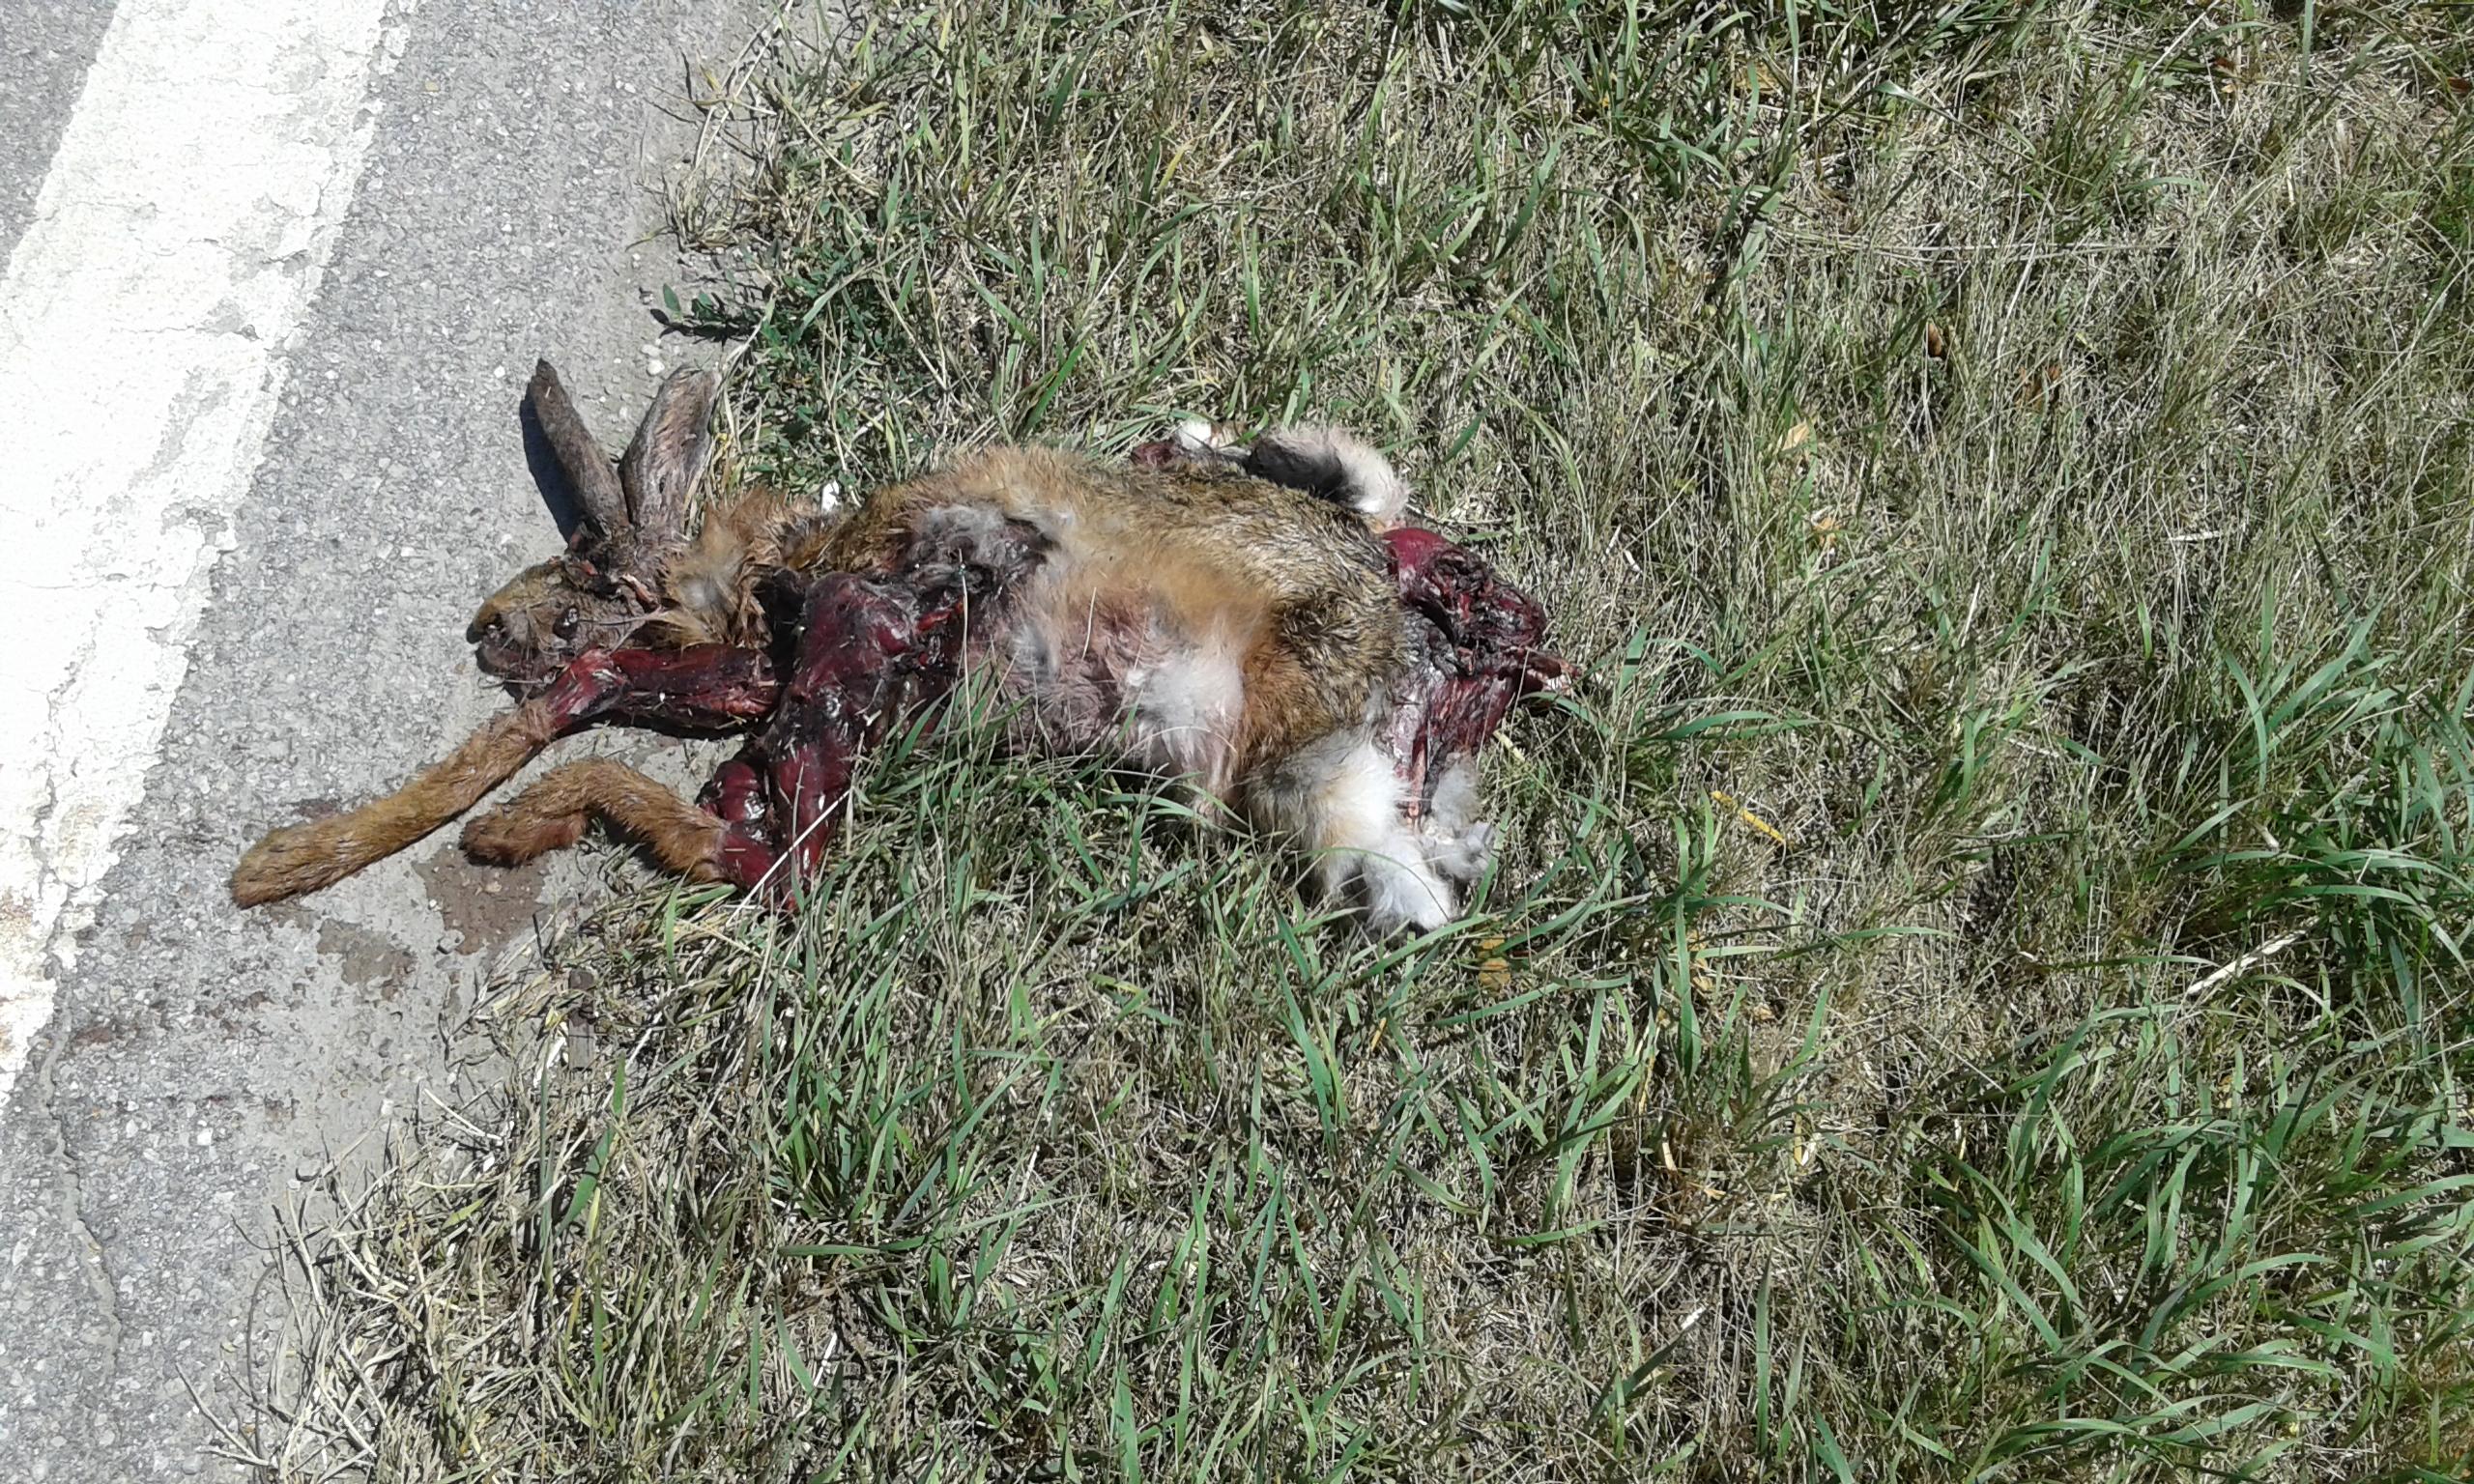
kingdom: Animalia
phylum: Chordata
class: Mammalia
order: Lagomorpha
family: Leporidae
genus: Lepus
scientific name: Lepus europaeus
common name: European hare
